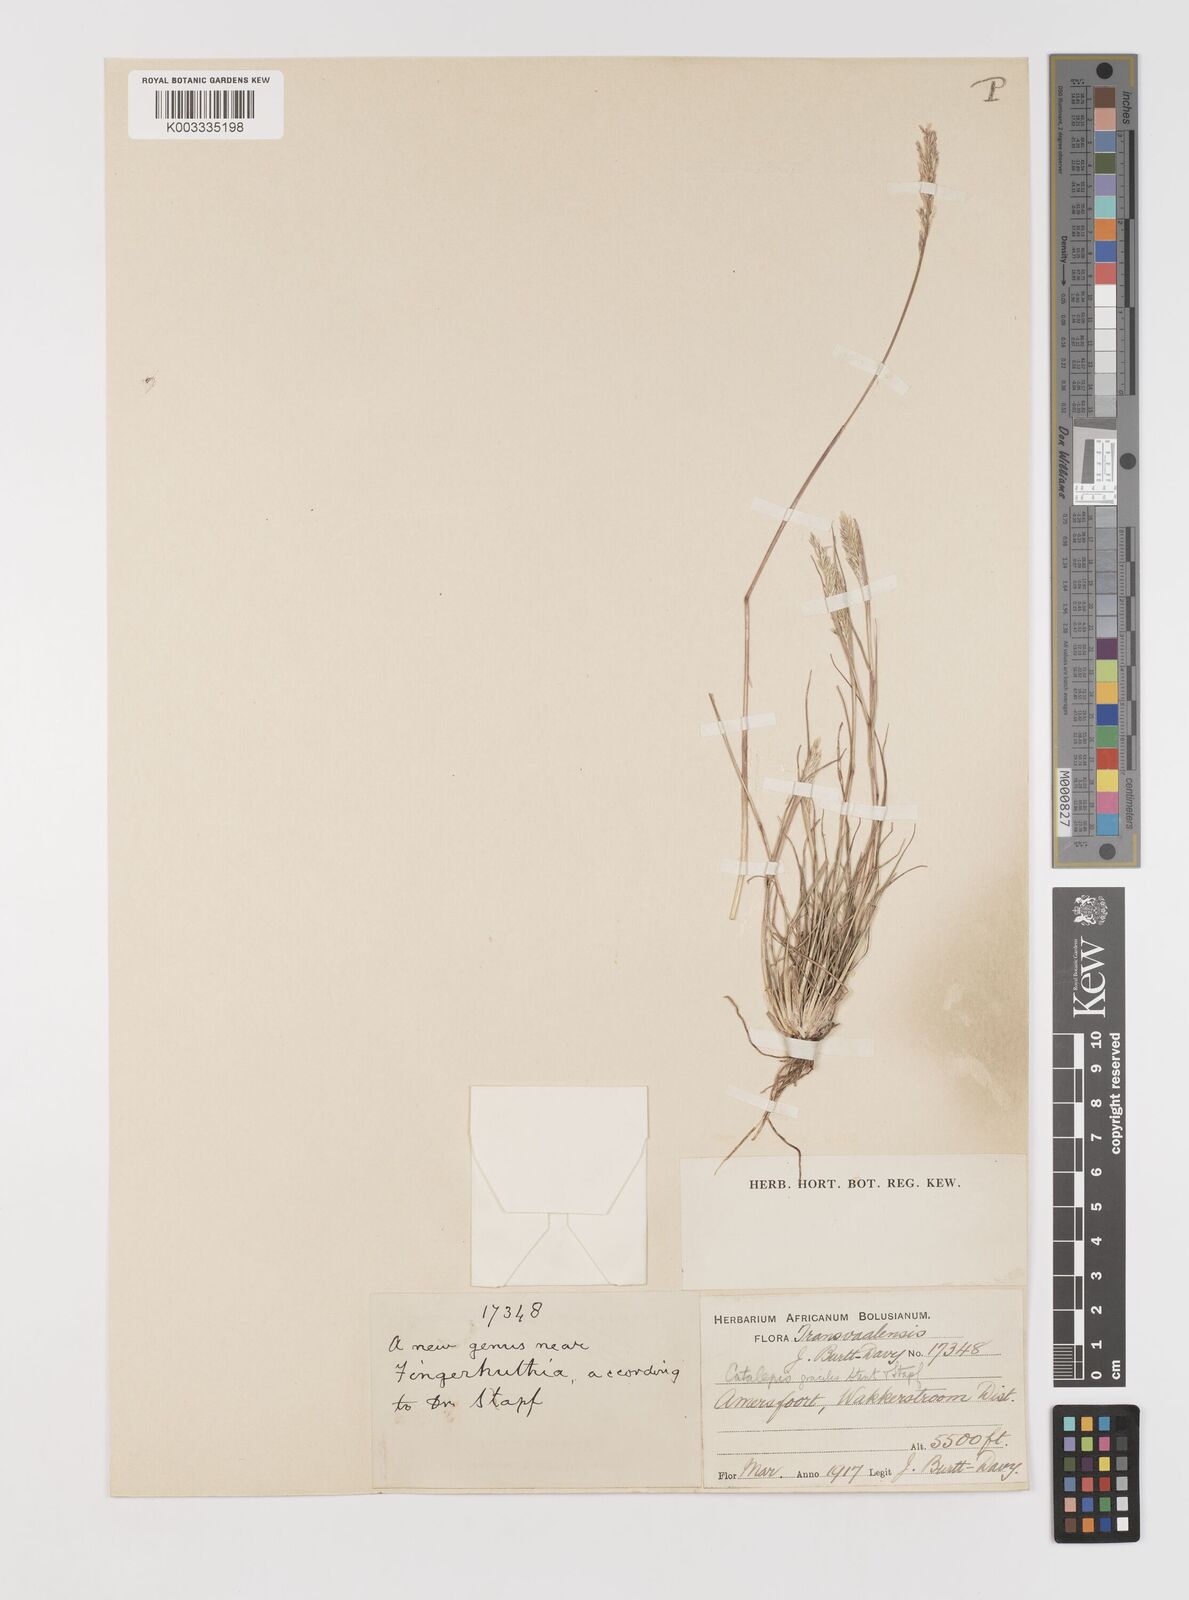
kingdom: Plantae
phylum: Tracheophyta
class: Liliopsida
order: Poales
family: Poaceae
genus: Catalepis
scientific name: Catalepis gracilis
